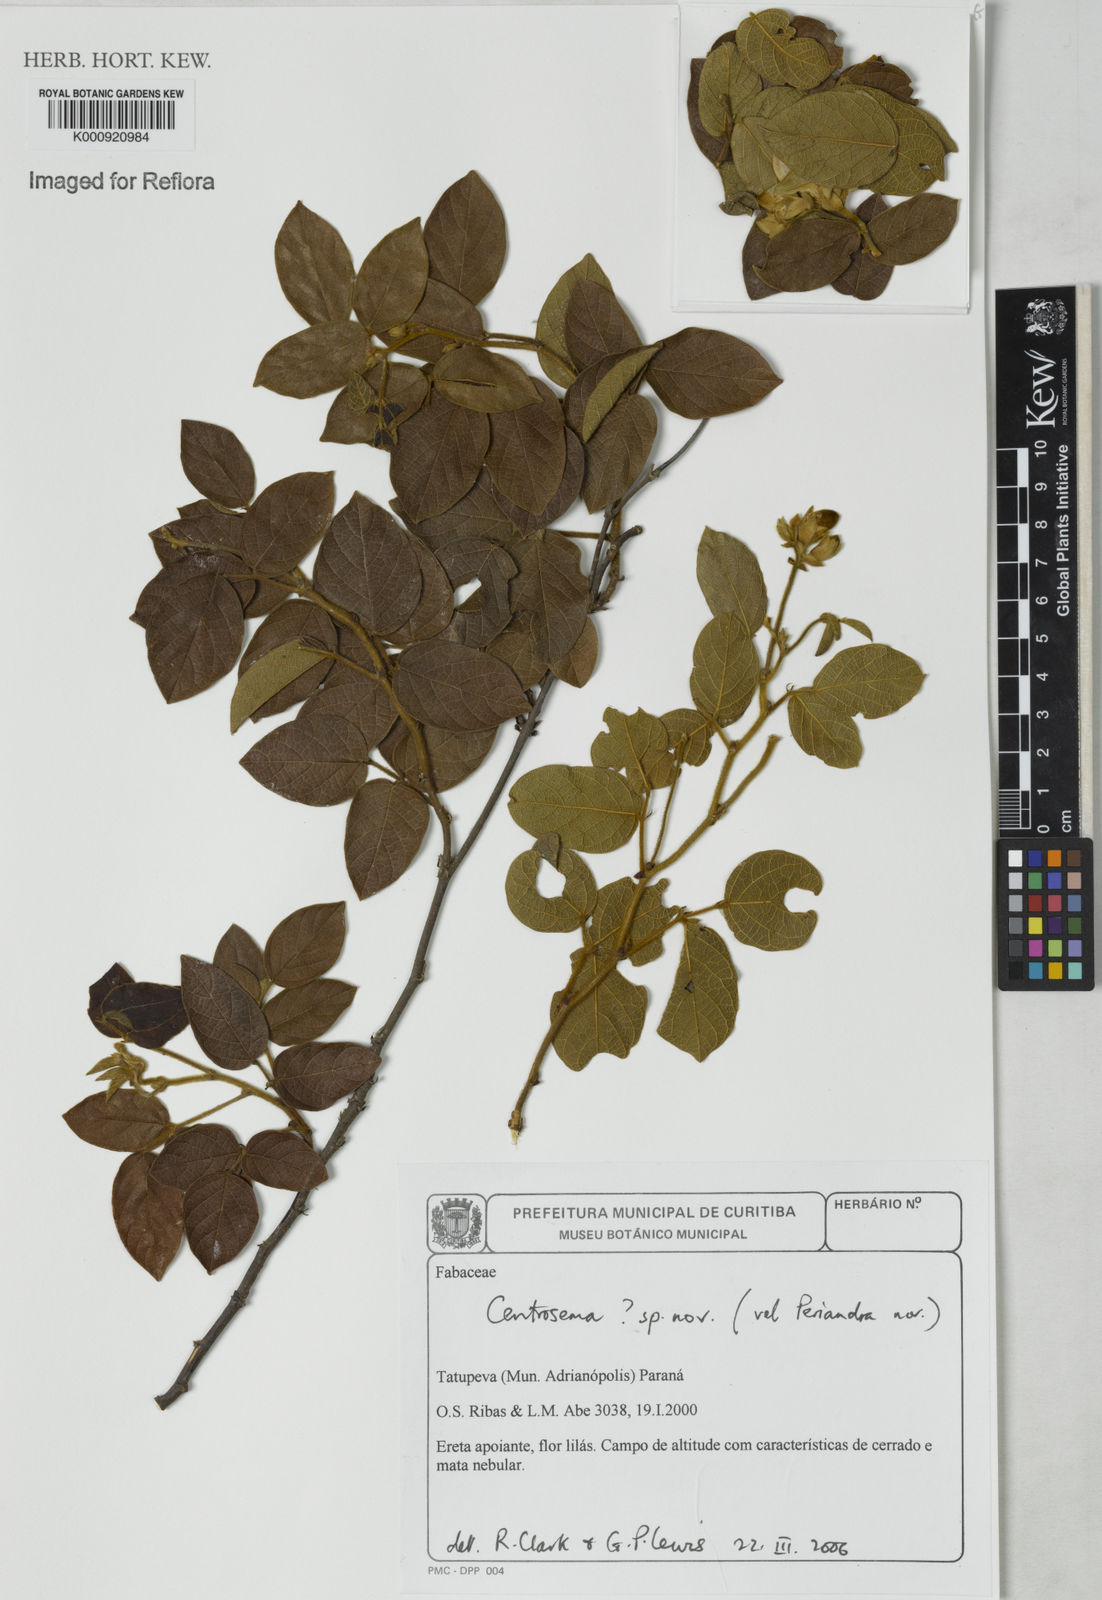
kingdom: Plantae
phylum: Tracheophyta
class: Magnoliopsida
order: Fabales
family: Fabaceae
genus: Centrosema
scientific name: Centrosema
